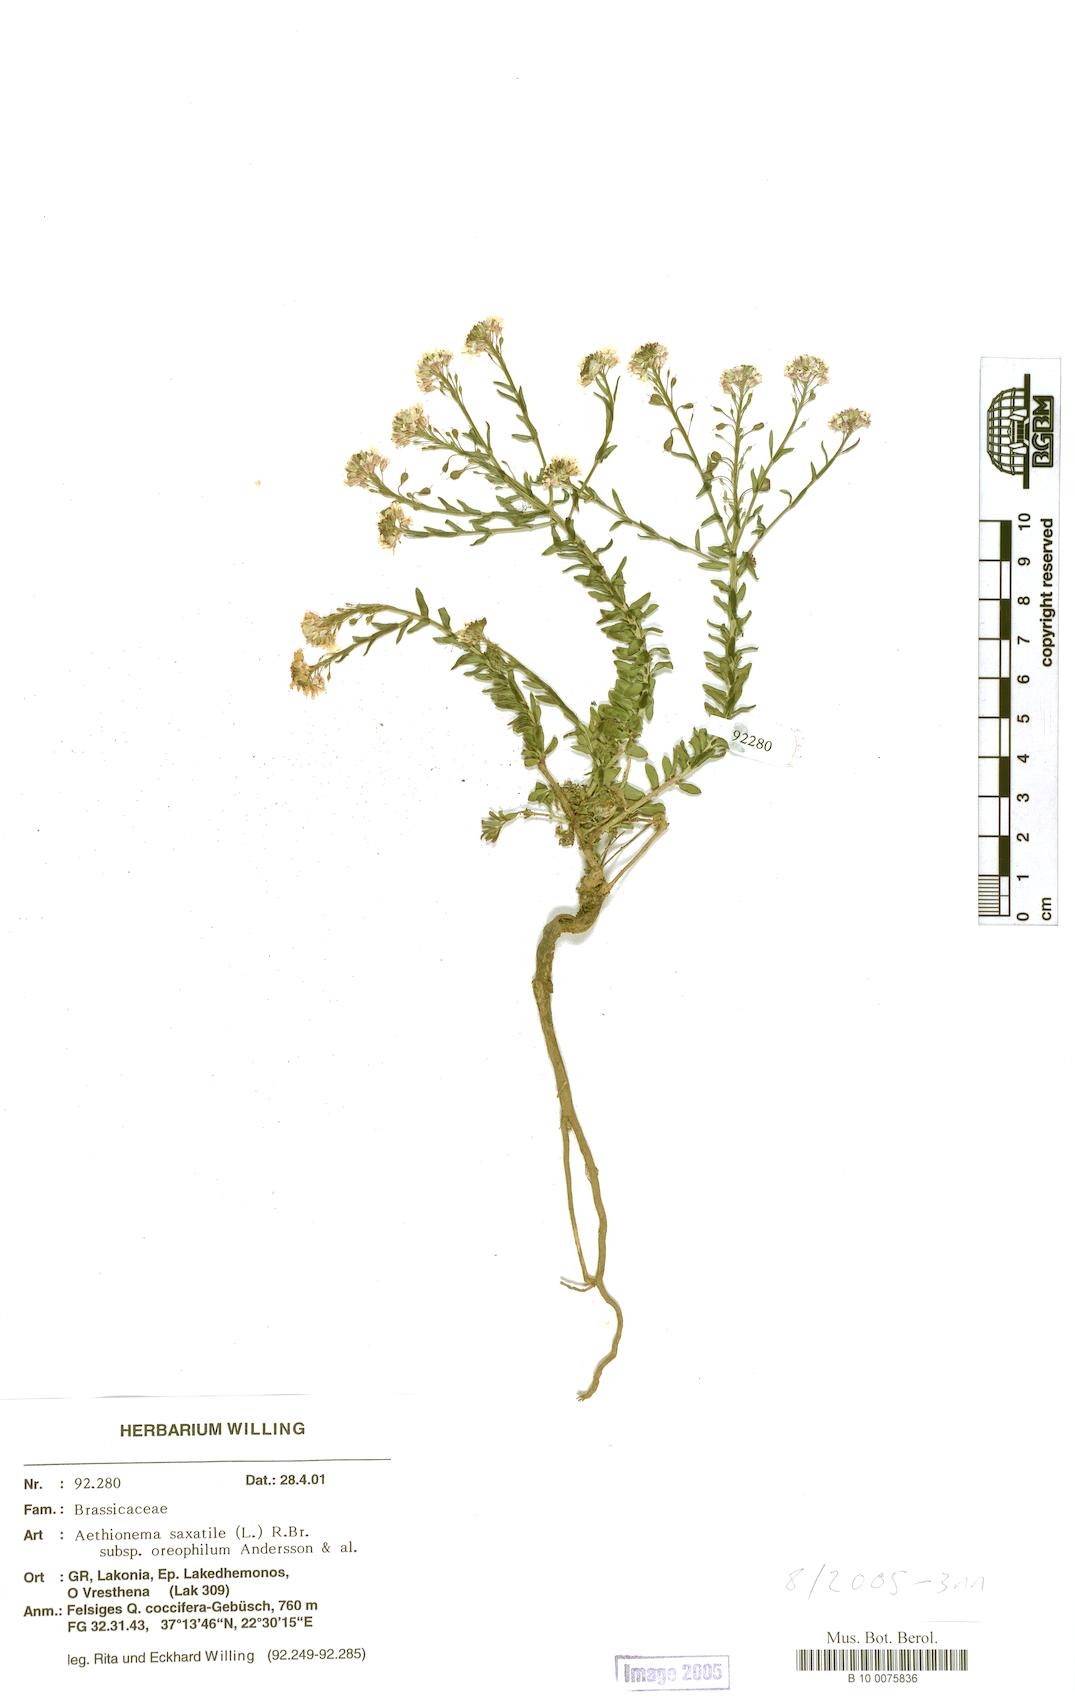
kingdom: Plantae
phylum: Tracheophyta
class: Magnoliopsida
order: Brassicales
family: Brassicaceae
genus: Aethionema
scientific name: Aethionema saxatile
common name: Burnt candytuft
